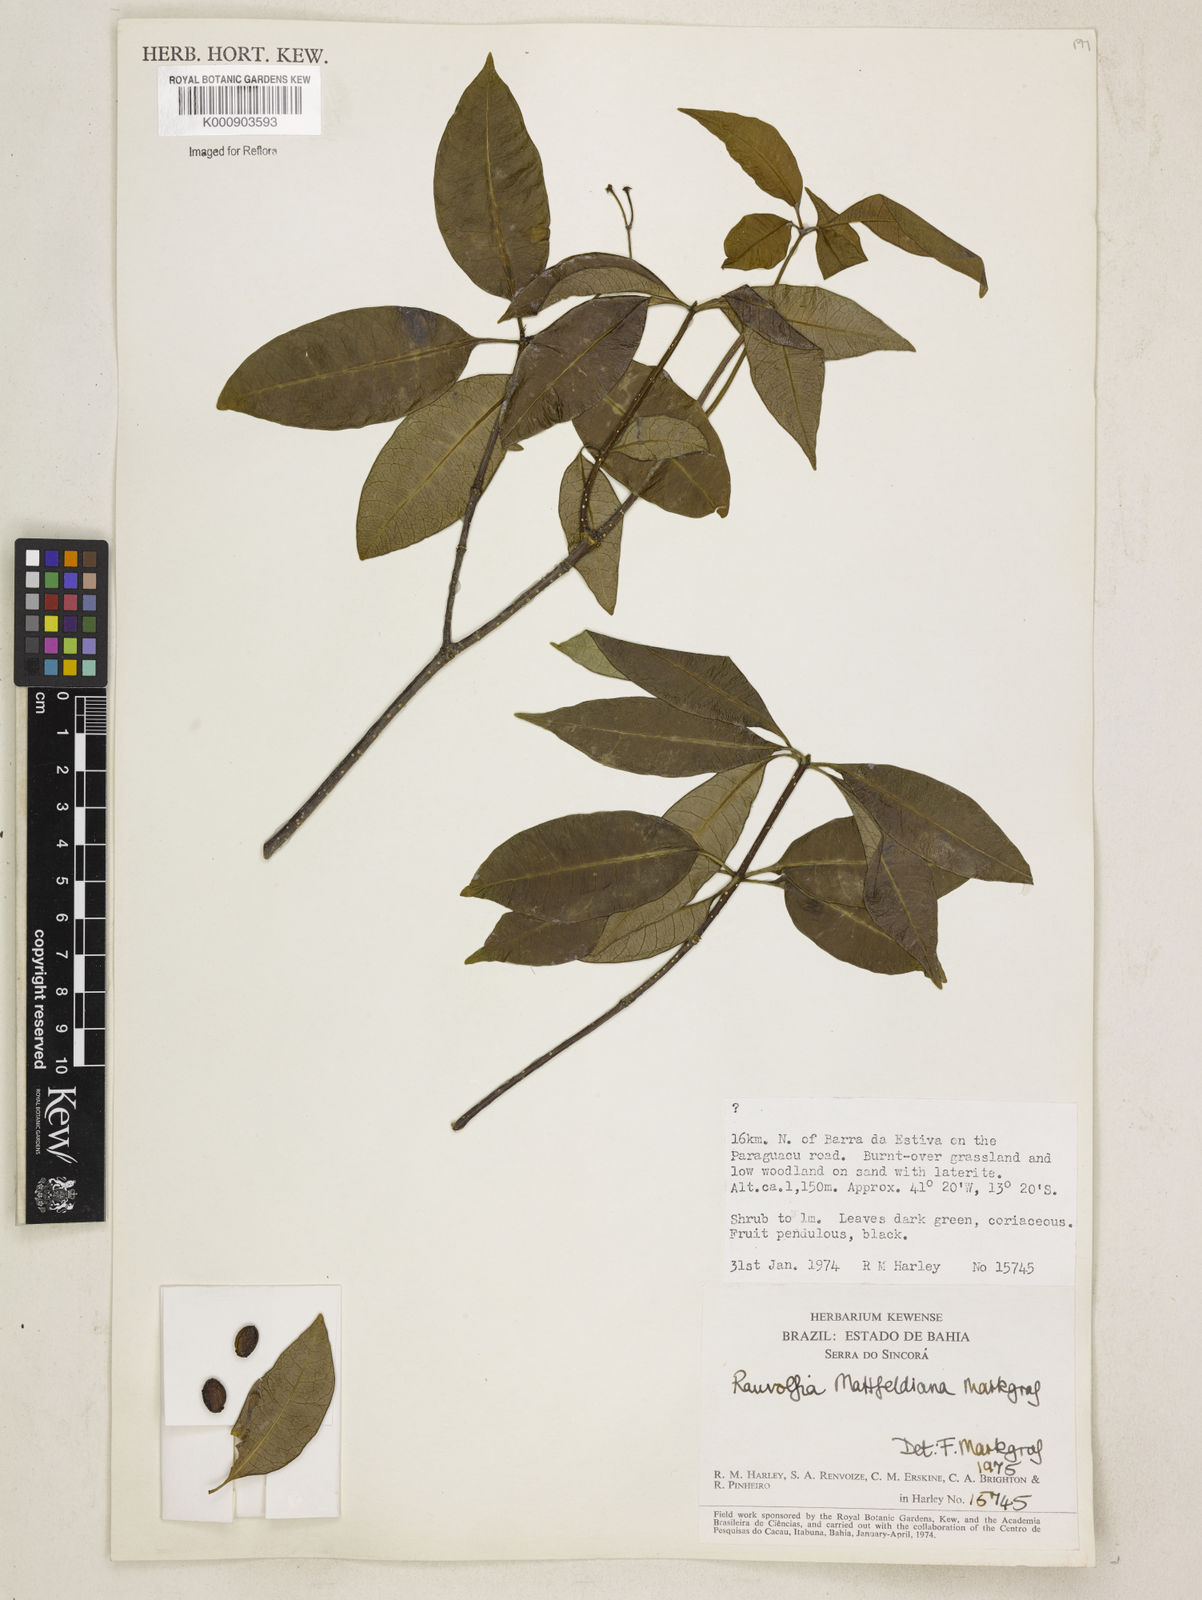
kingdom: Plantae
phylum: Tracheophyta
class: Magnoliopsida
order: Gentianales
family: Apocynaceae
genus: Rauvolfia
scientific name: Rauvolfia mattfeldiana
